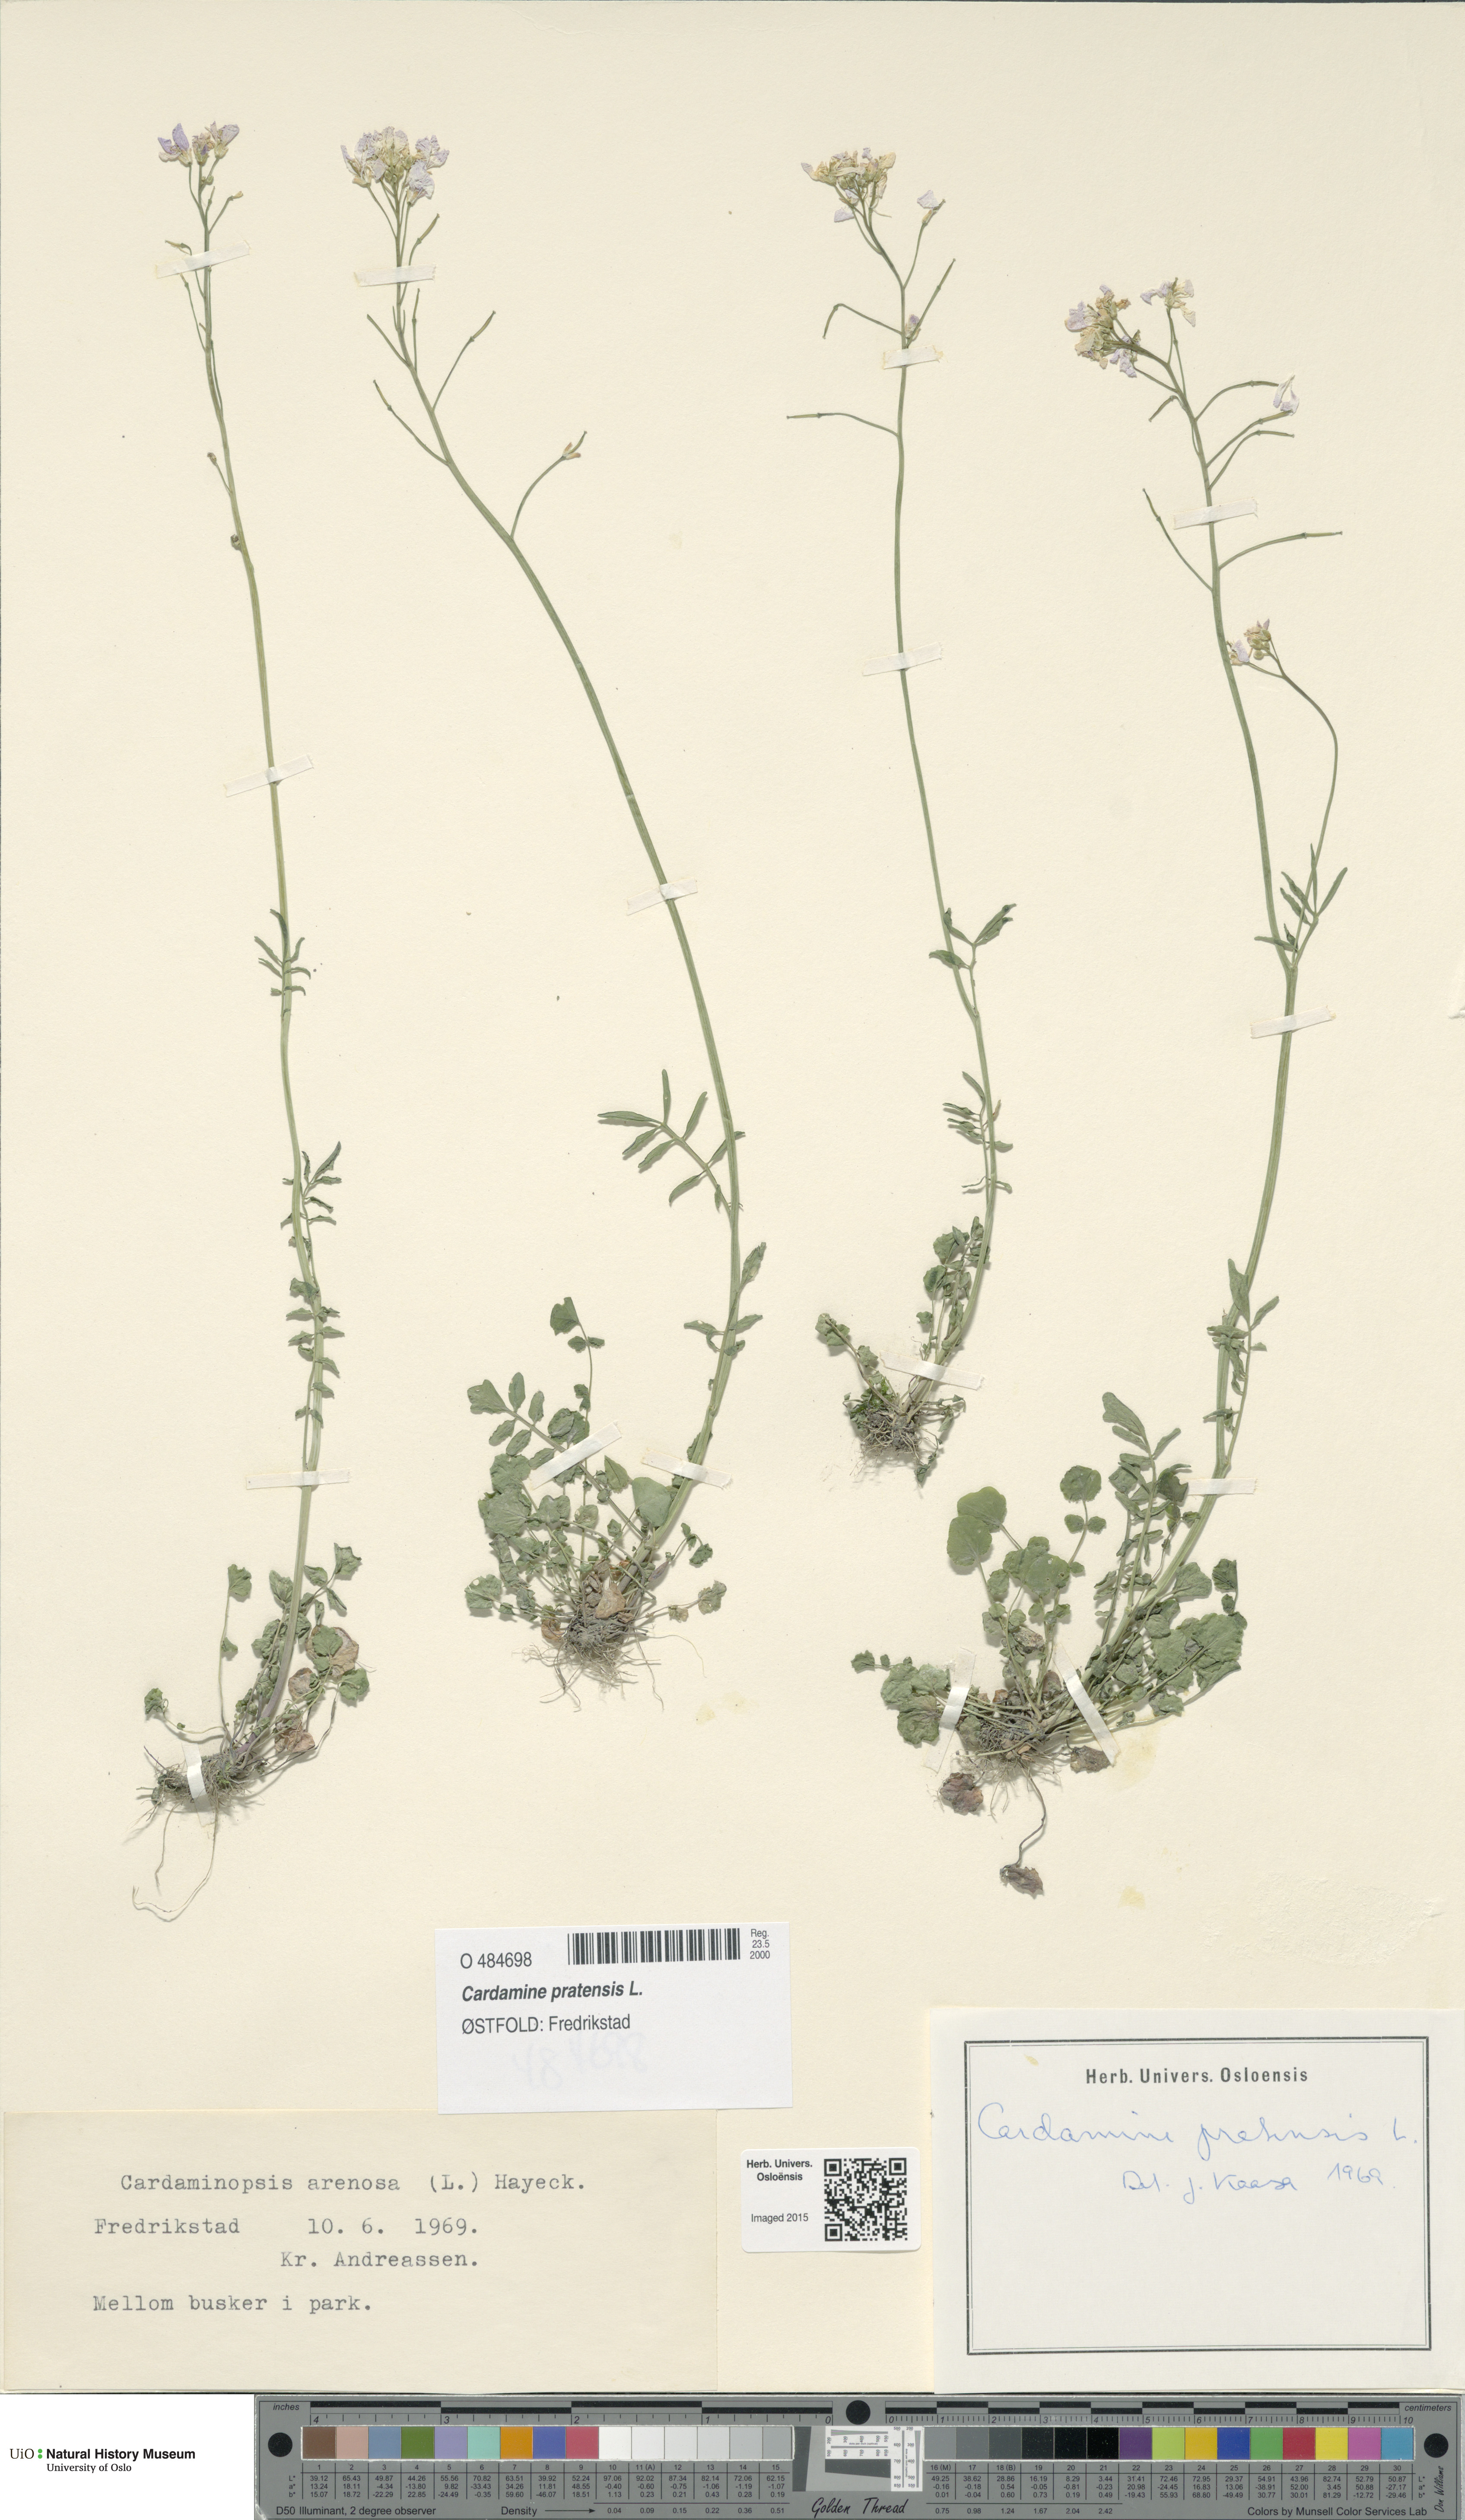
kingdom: Plantae
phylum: Tracheophyta
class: Magnoliopsida
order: Brassicales
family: Brassicaceae
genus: Cardamine
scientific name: Cardamine pratensis
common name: Cuckoo flower
